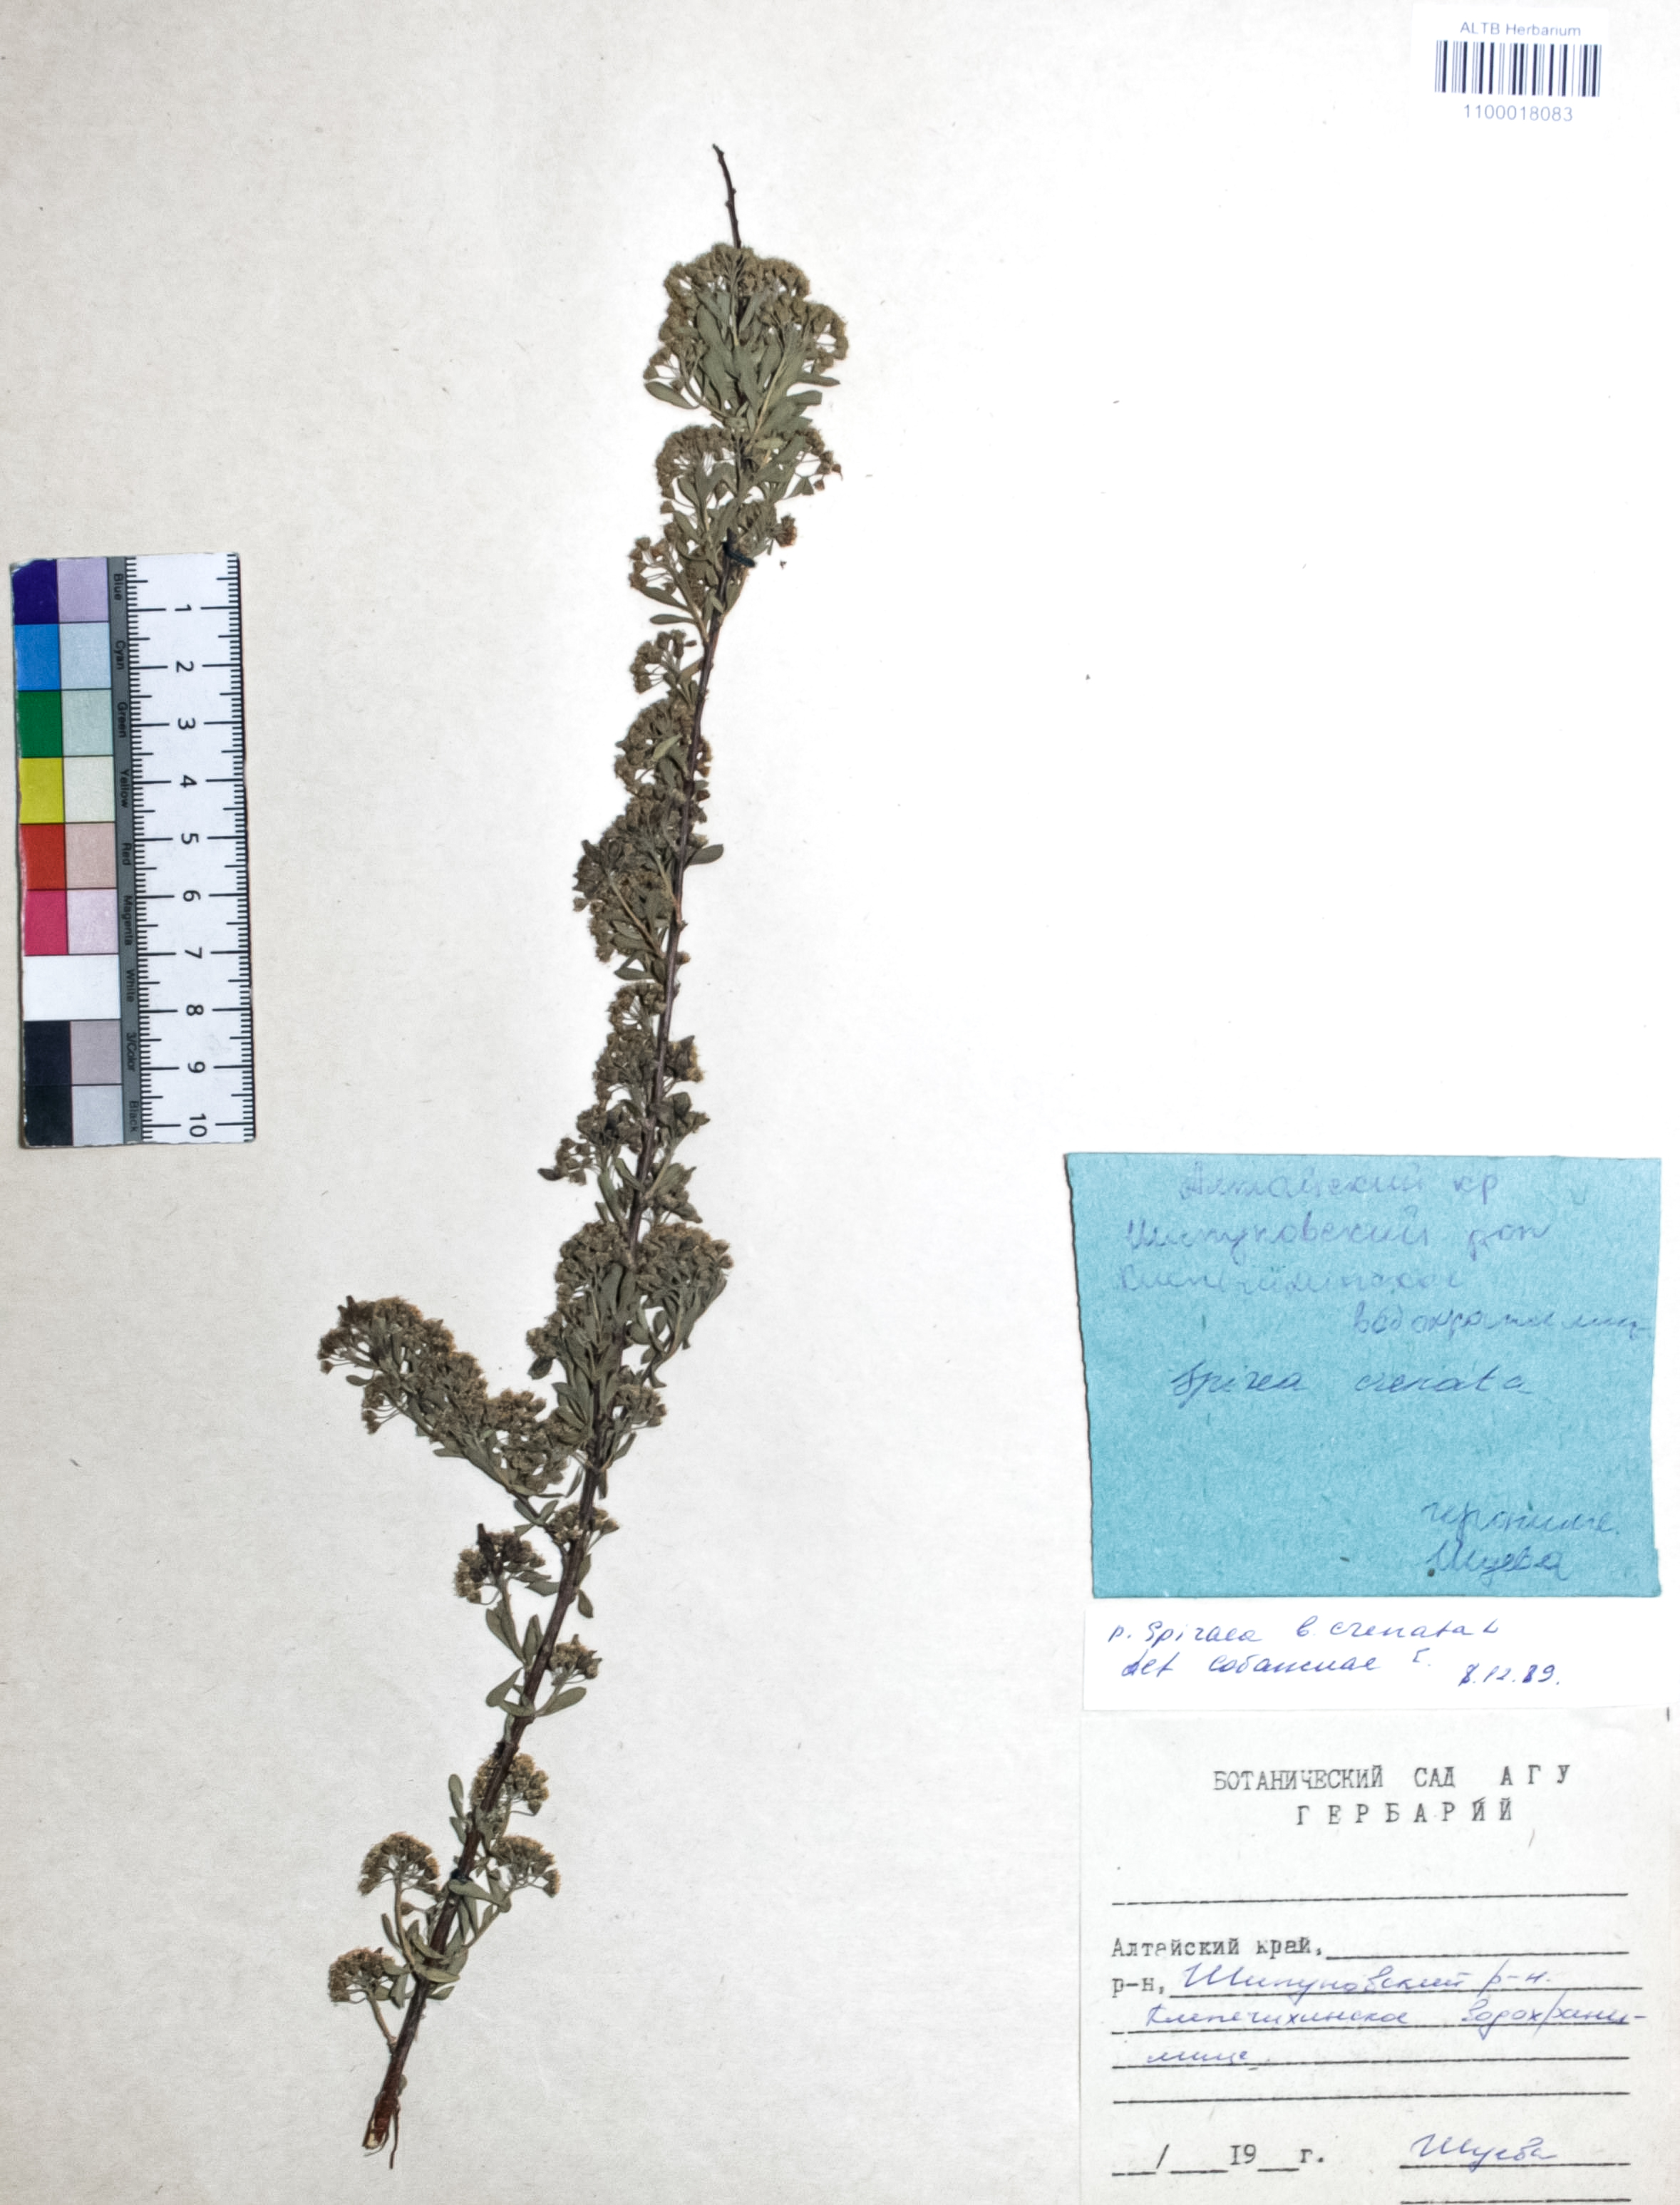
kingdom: Plantae
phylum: Tracheophyta
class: Magnoliopsida
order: Rosales
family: Rosaceae
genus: Spiraea
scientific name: Spiraea crenata
